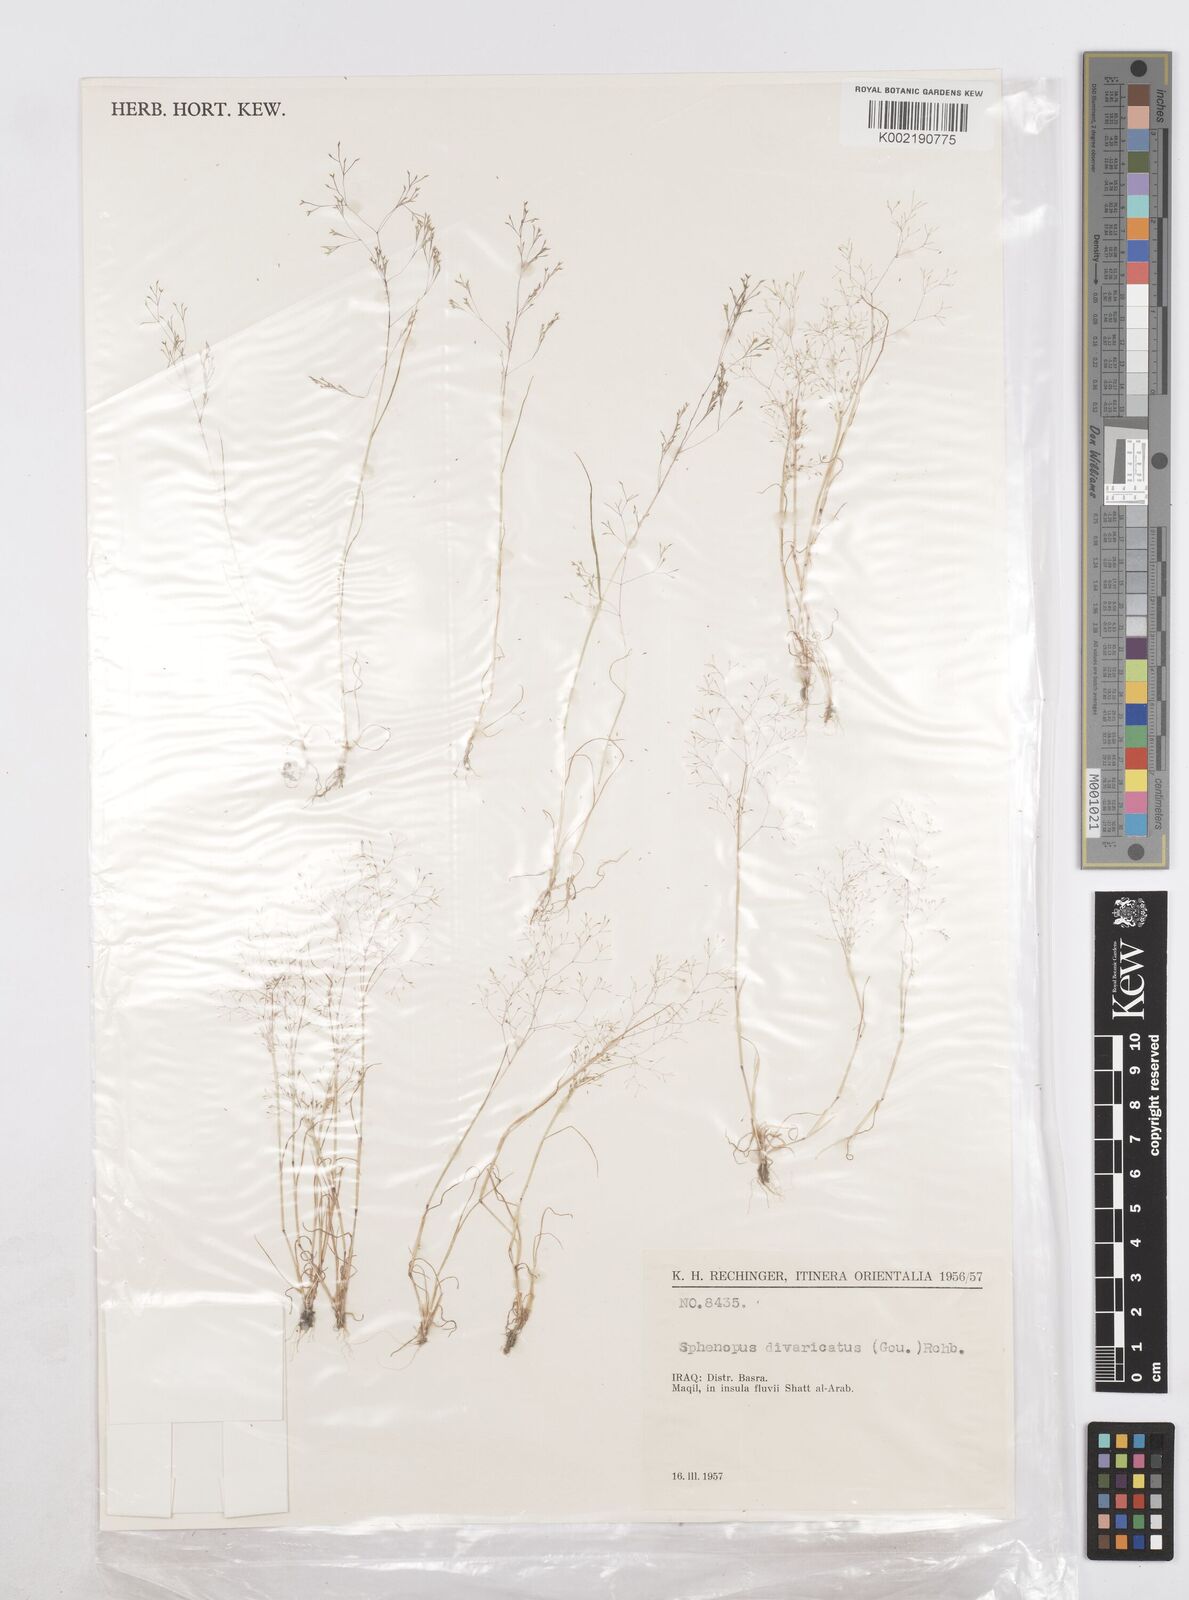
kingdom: Plantae
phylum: Tracheophyta
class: Liliopsida
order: Poales
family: Poaceae
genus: Sphenopus
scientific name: Sphenopus divaricatus
